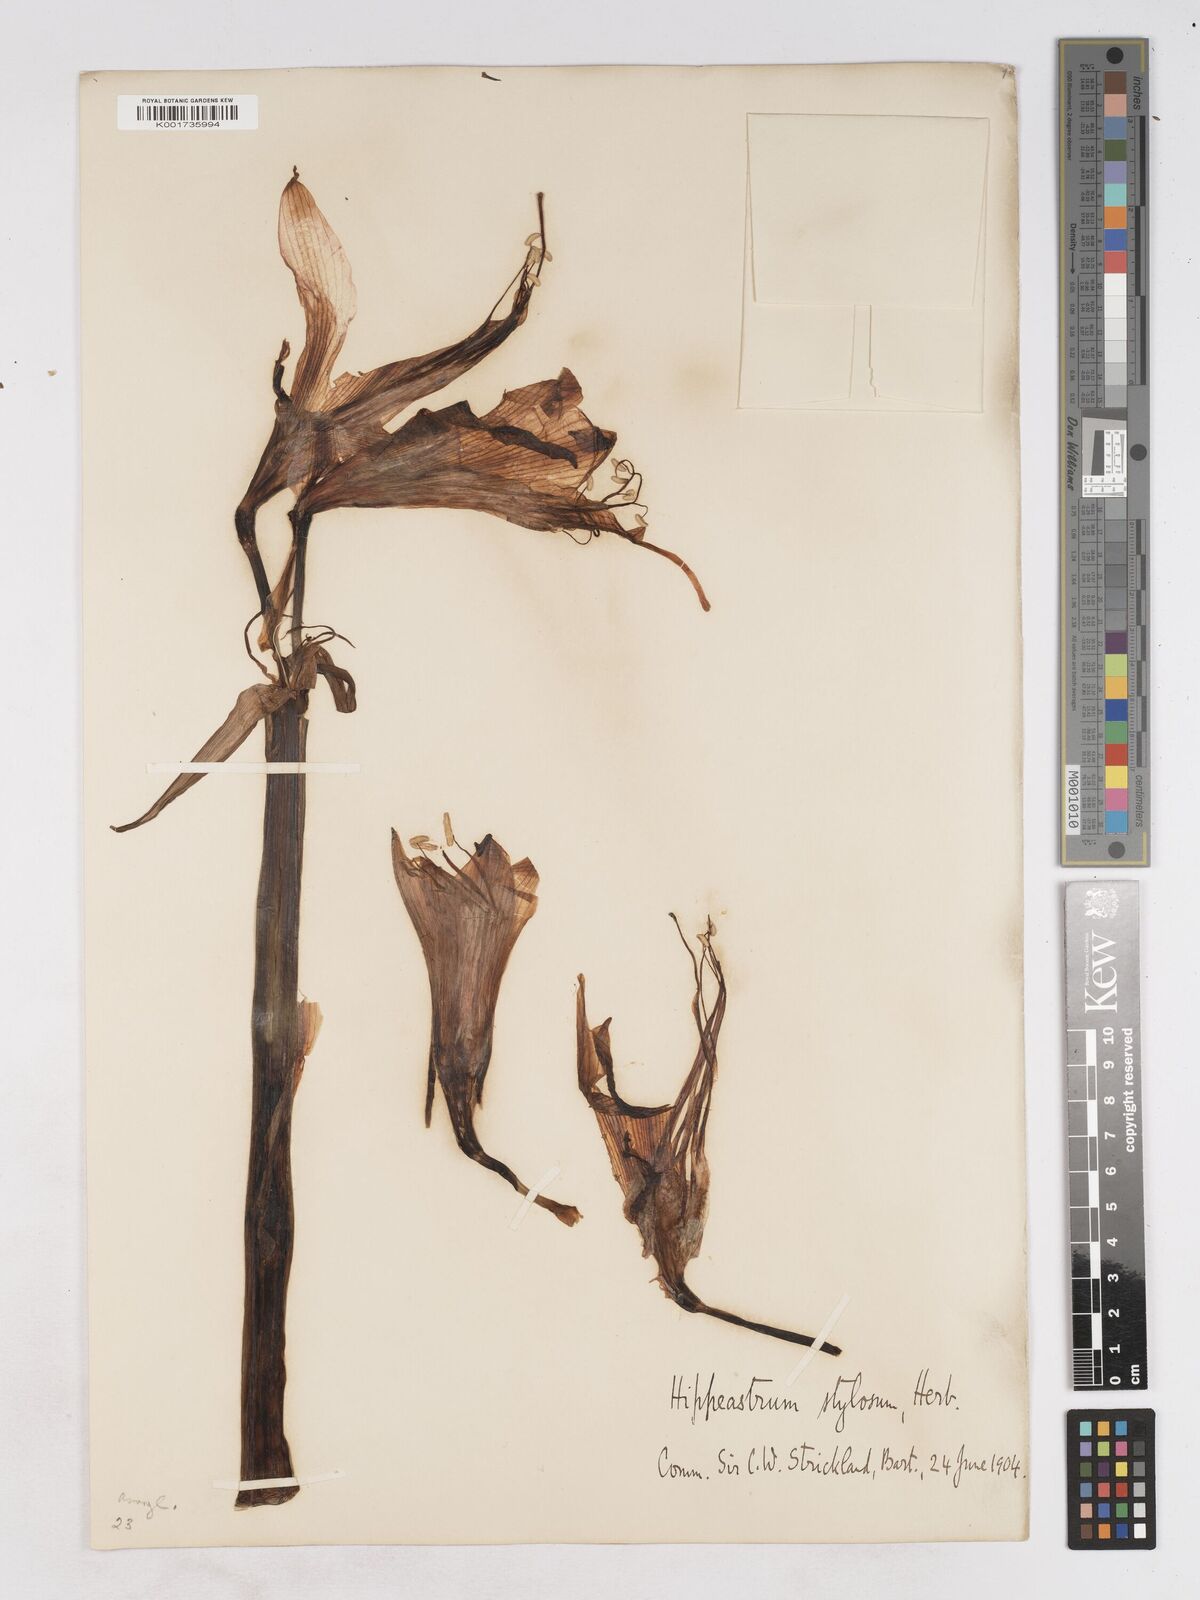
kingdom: Plantae
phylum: Tracheophyta
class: Liliopsida
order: Asparagales
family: Amaryllidaceae
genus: Hippeastrum
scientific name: Hippeastrum stylosum
